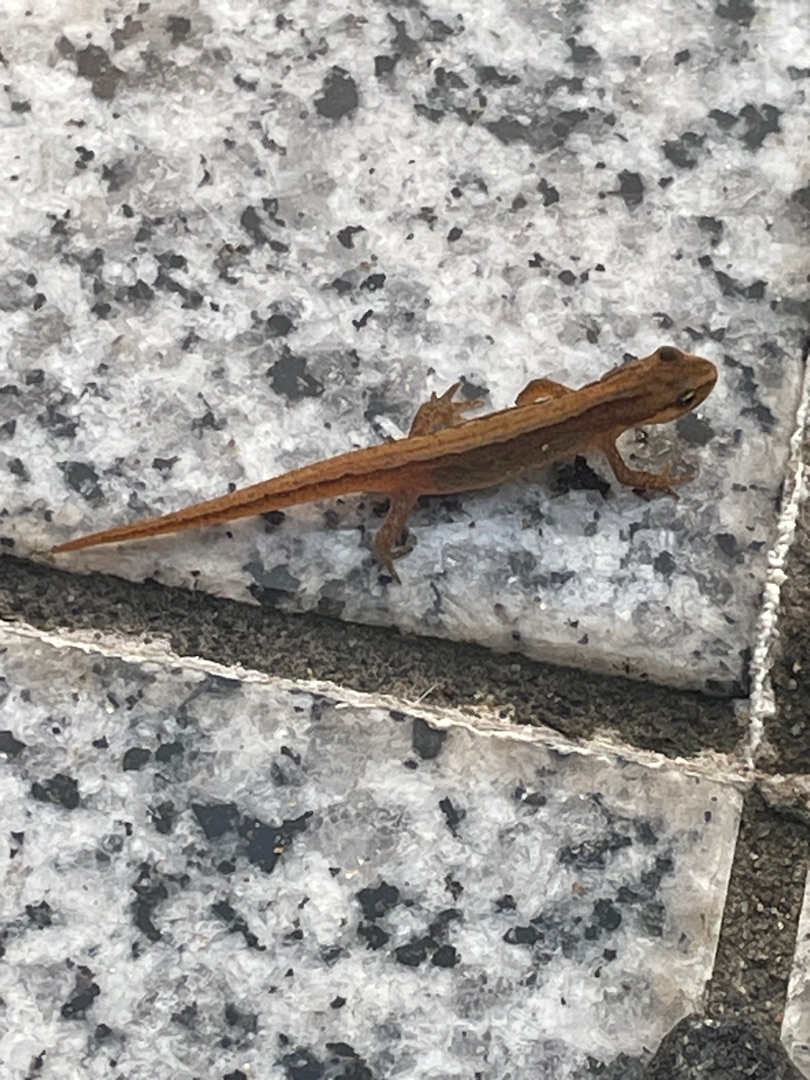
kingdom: Animalia
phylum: Chordata
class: Amphibia
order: Caudata
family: Salamandridae
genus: Lissotriton
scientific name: Lissotriton vulgaris
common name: Lille vandsalamander
